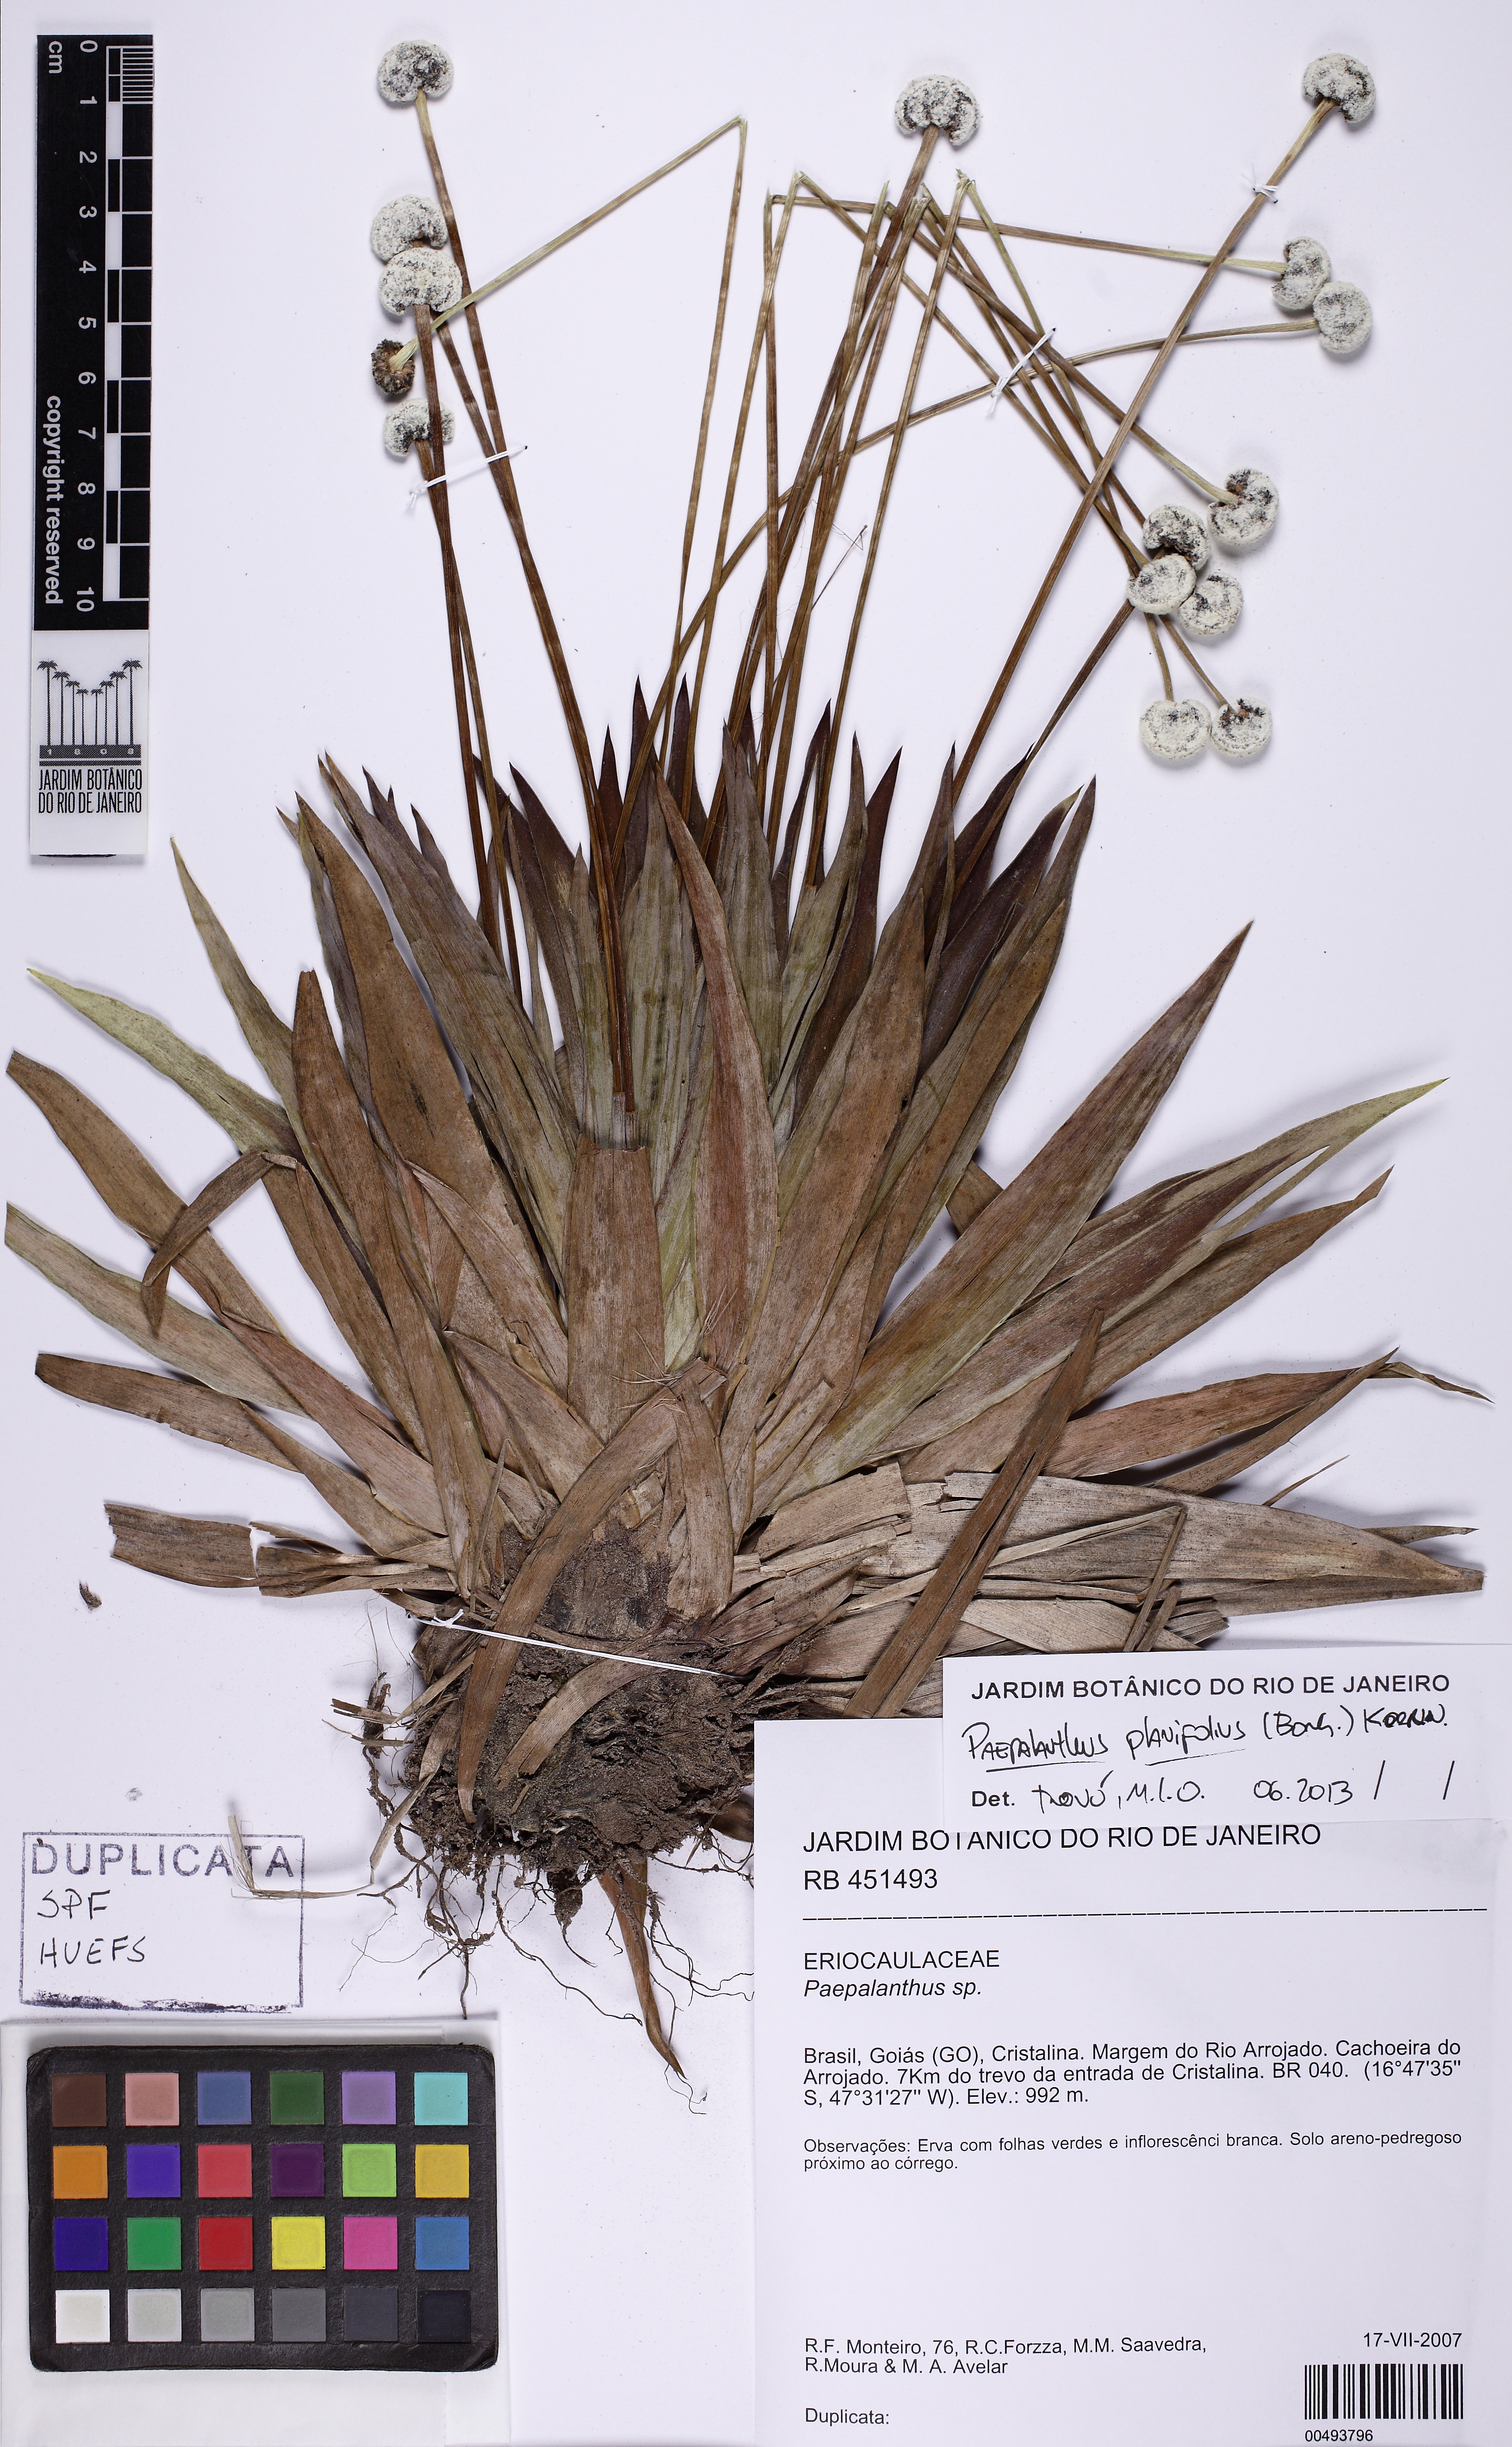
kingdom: Plantae
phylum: Tracheophyta
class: Liliopsida
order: Poales
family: Eriocaulaceae
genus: Paepalanthus
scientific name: Paepalanthus planifolius
